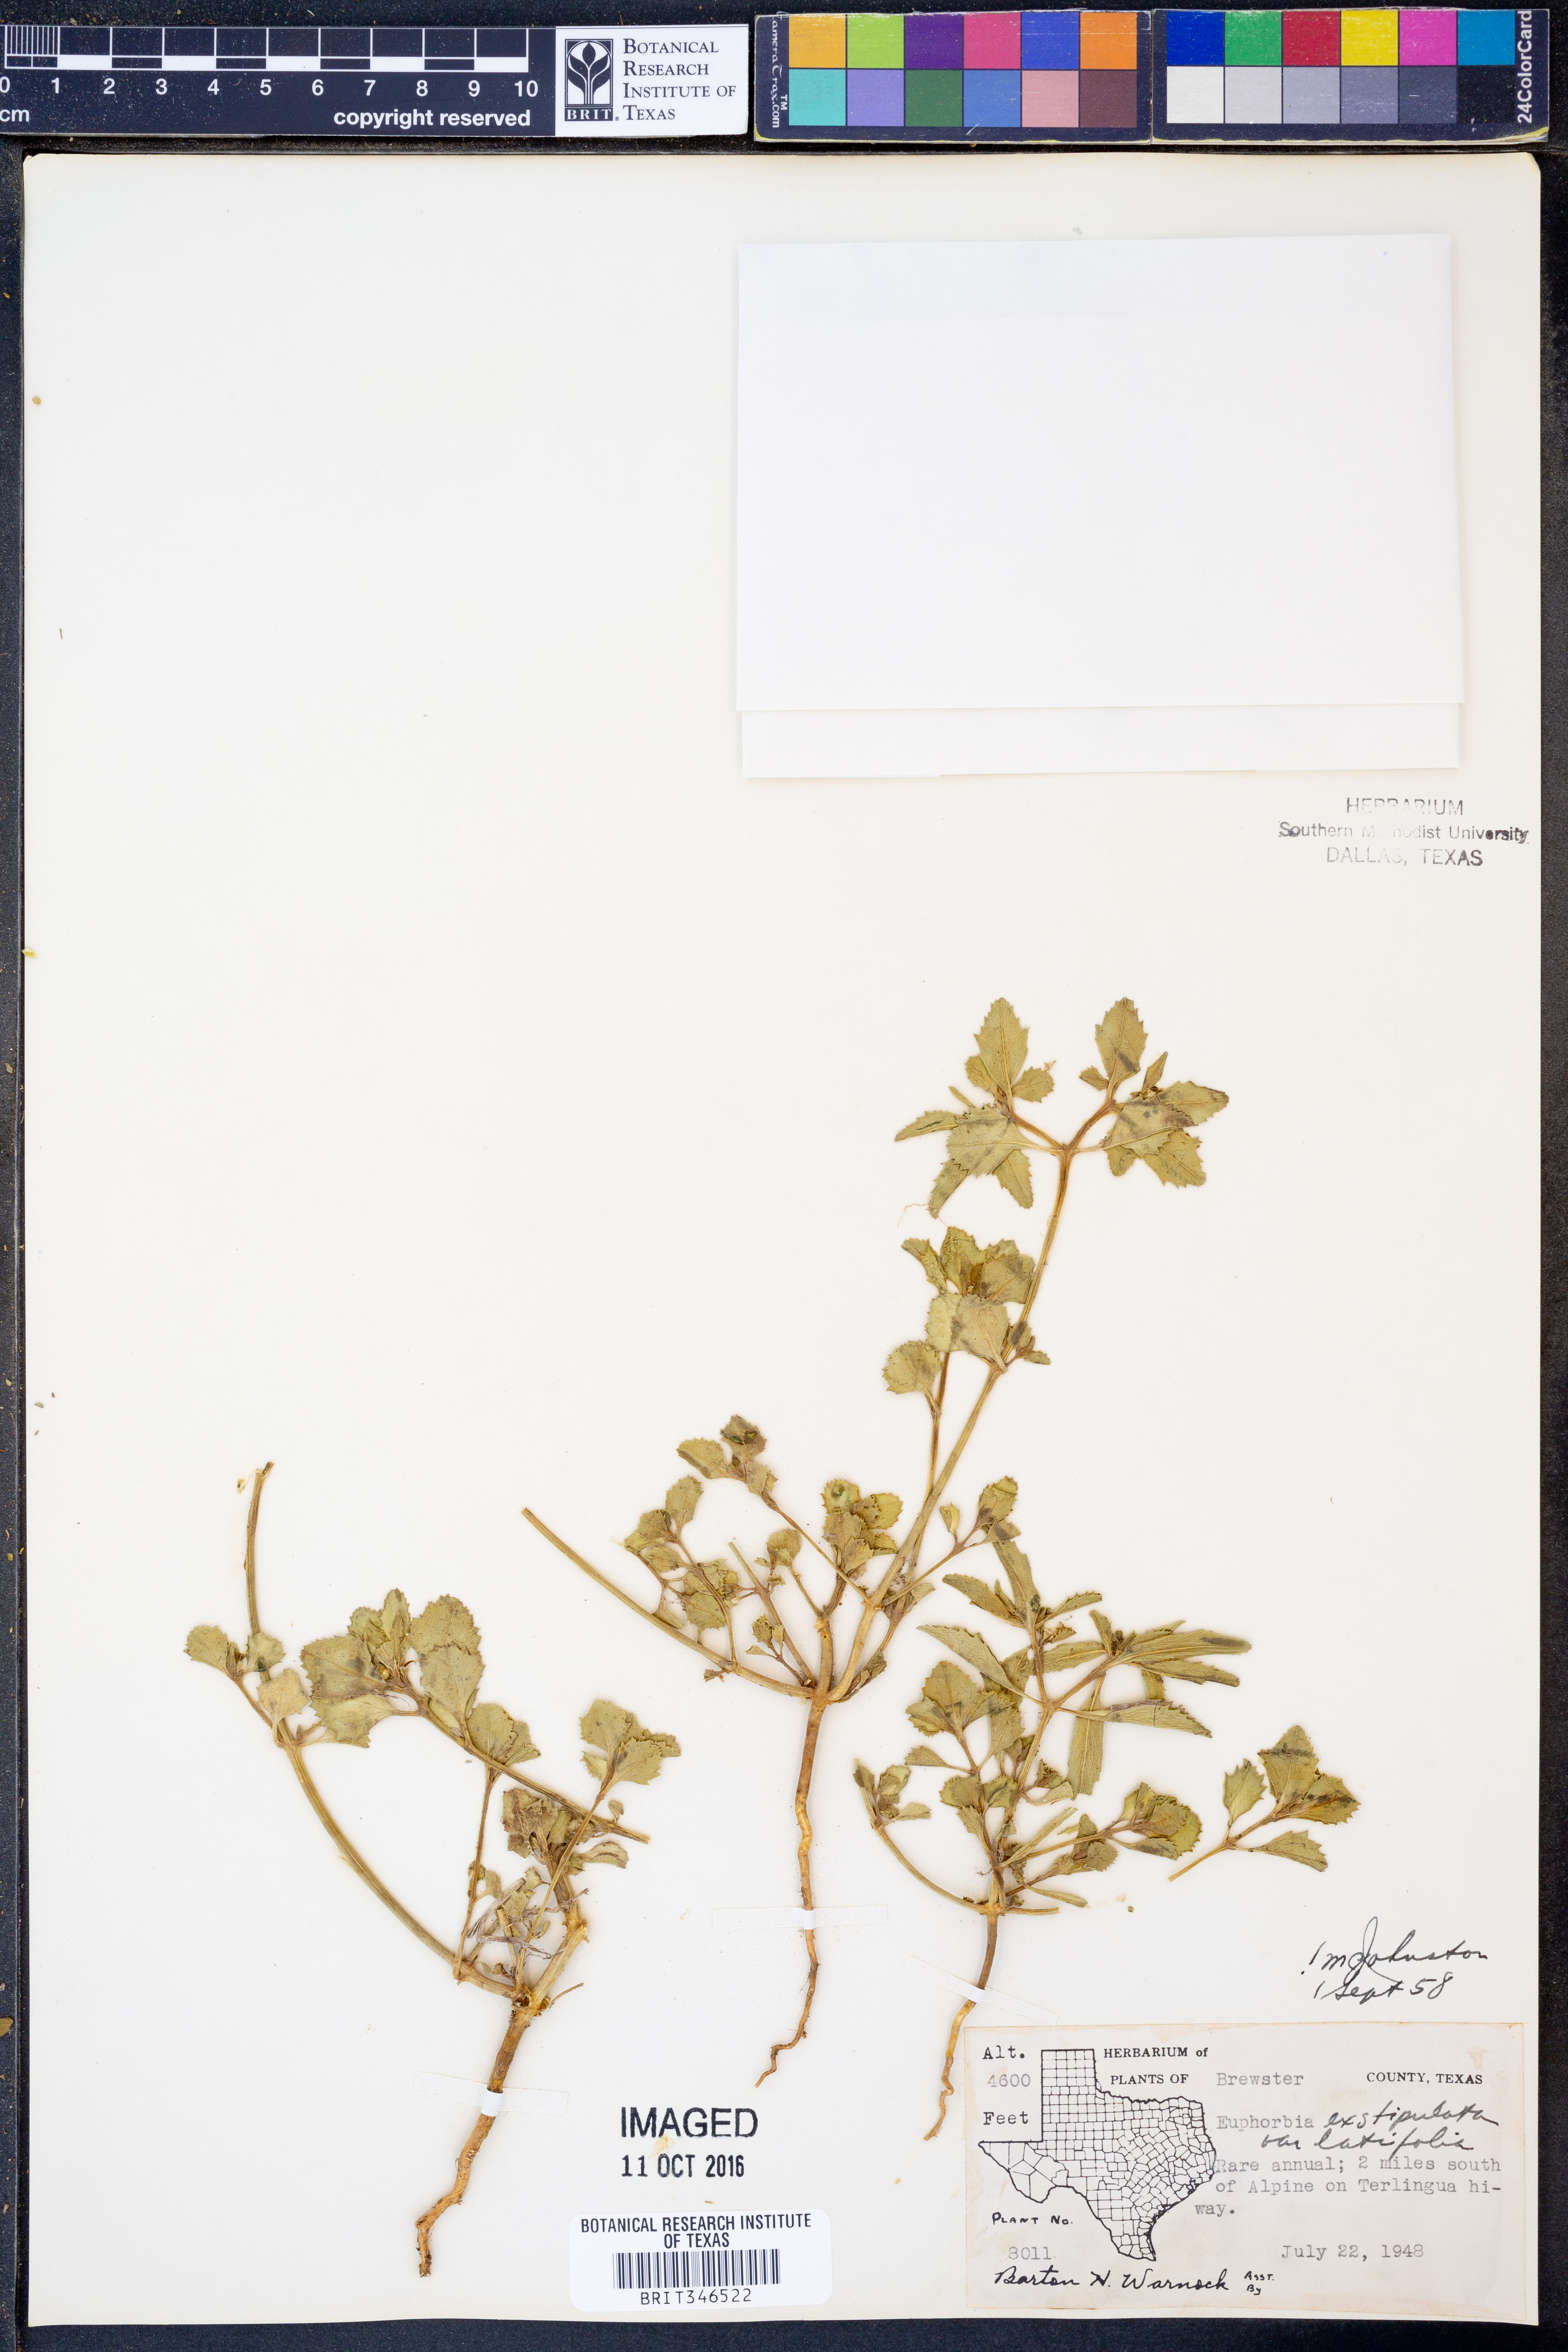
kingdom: Plantae
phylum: Tracheophyta
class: Magnoliopsida
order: Malpighiales
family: Euphorbiaceae
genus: Euphorbia
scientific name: Euphorbia exstipulata
